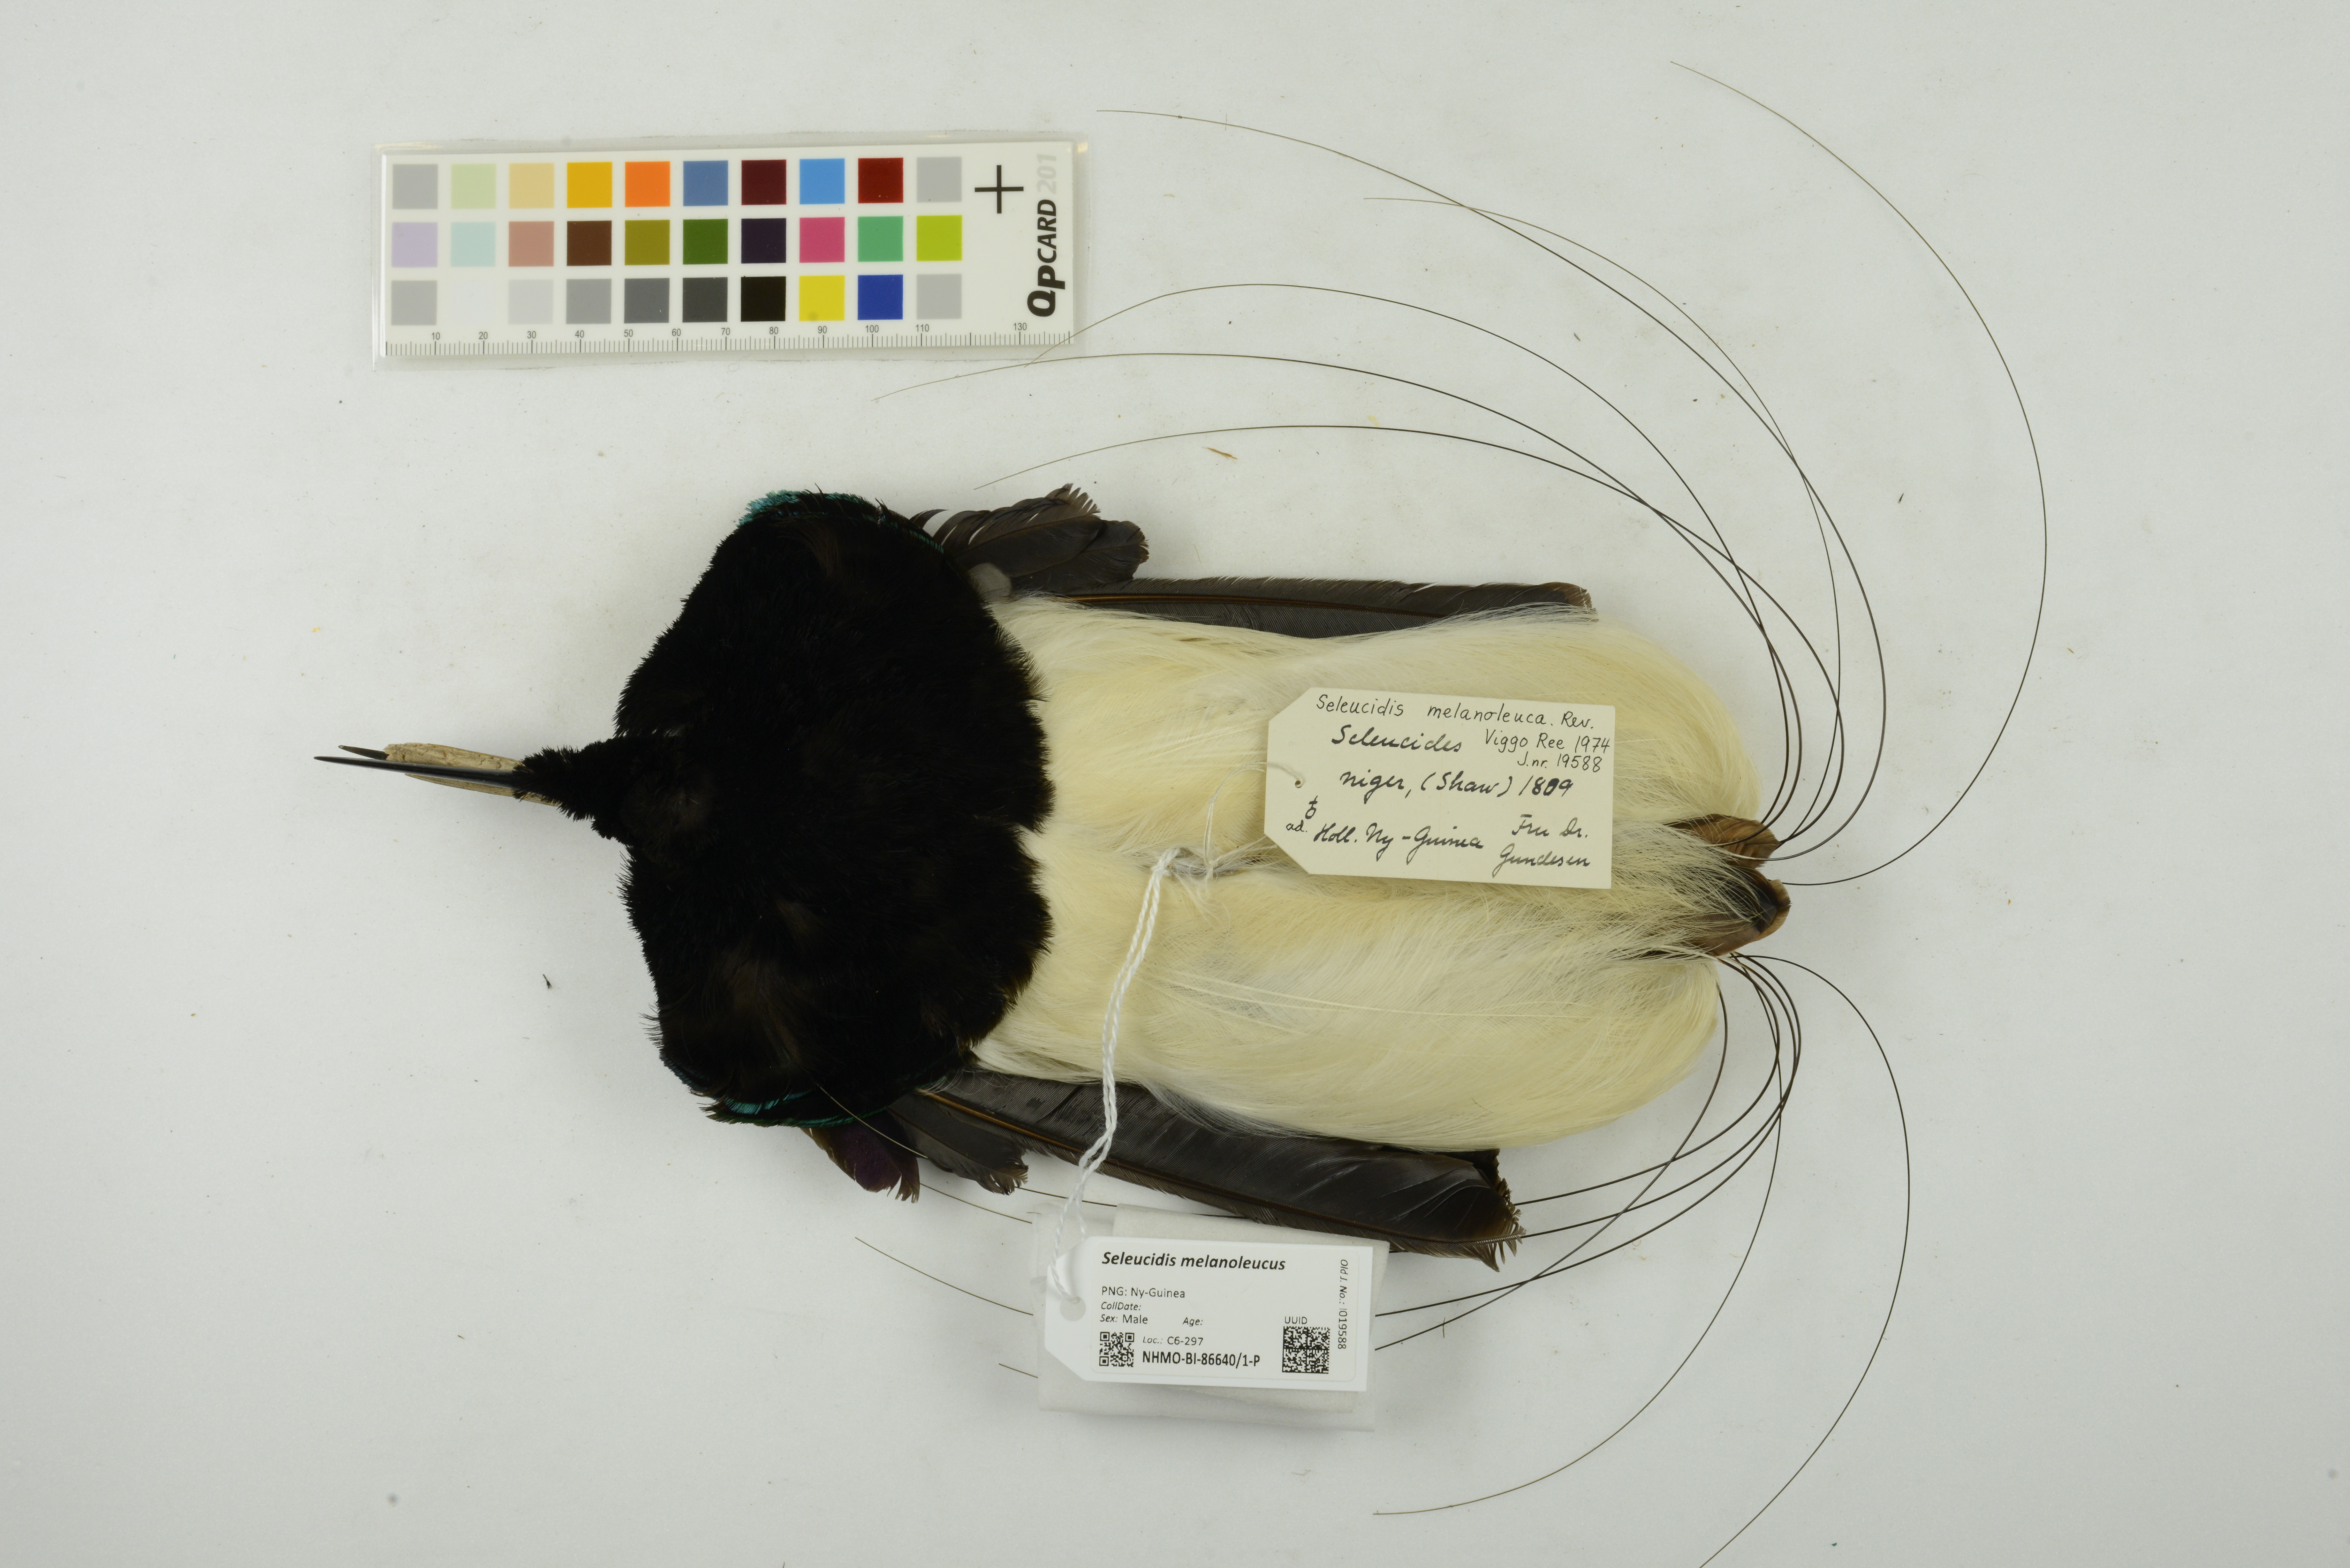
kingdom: Animalia
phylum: Chordata
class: Aves
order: Passeriformes
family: Paradisaeidae
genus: Seleucidis
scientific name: Seleucidis melanoleucus
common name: Twelve-wired bird-of-paradise
